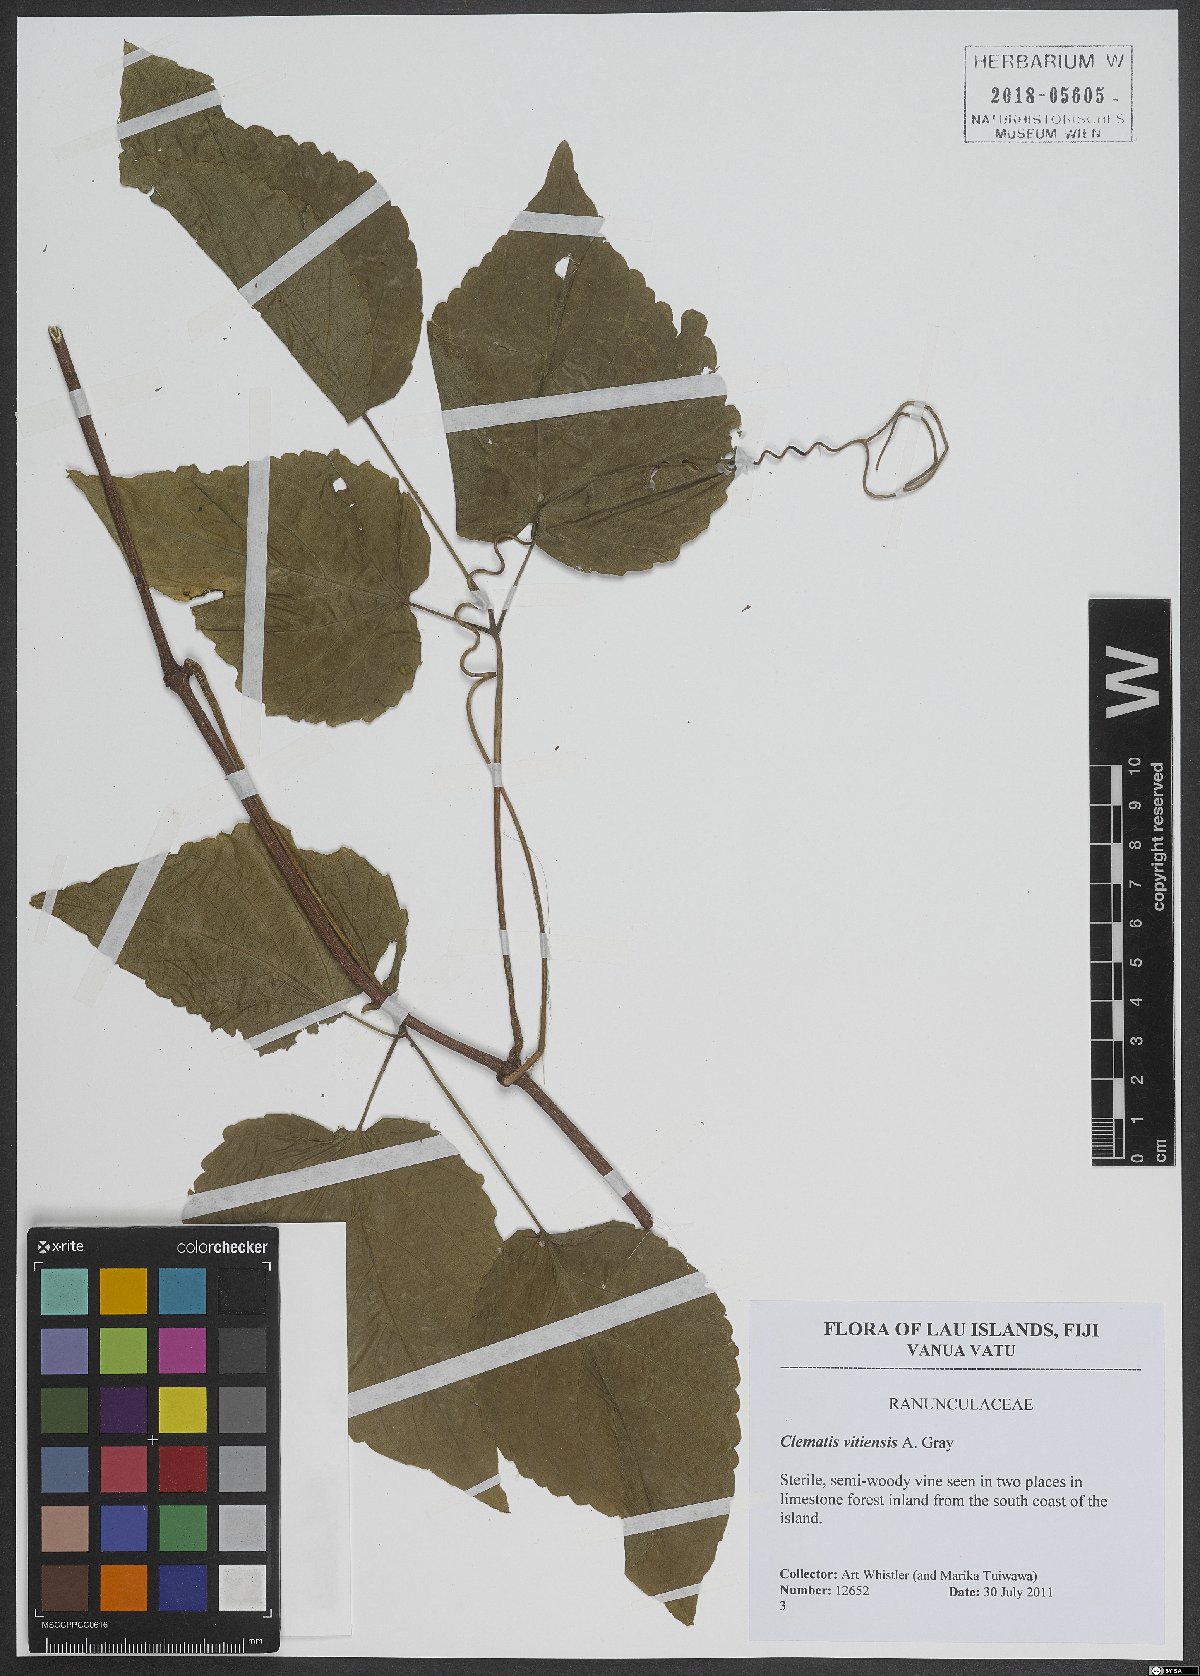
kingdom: Plantae
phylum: Tracheophyta
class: Magnoliopsida
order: Ranunculales
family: Ranunculaceae
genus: Clematis
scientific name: Clematis
